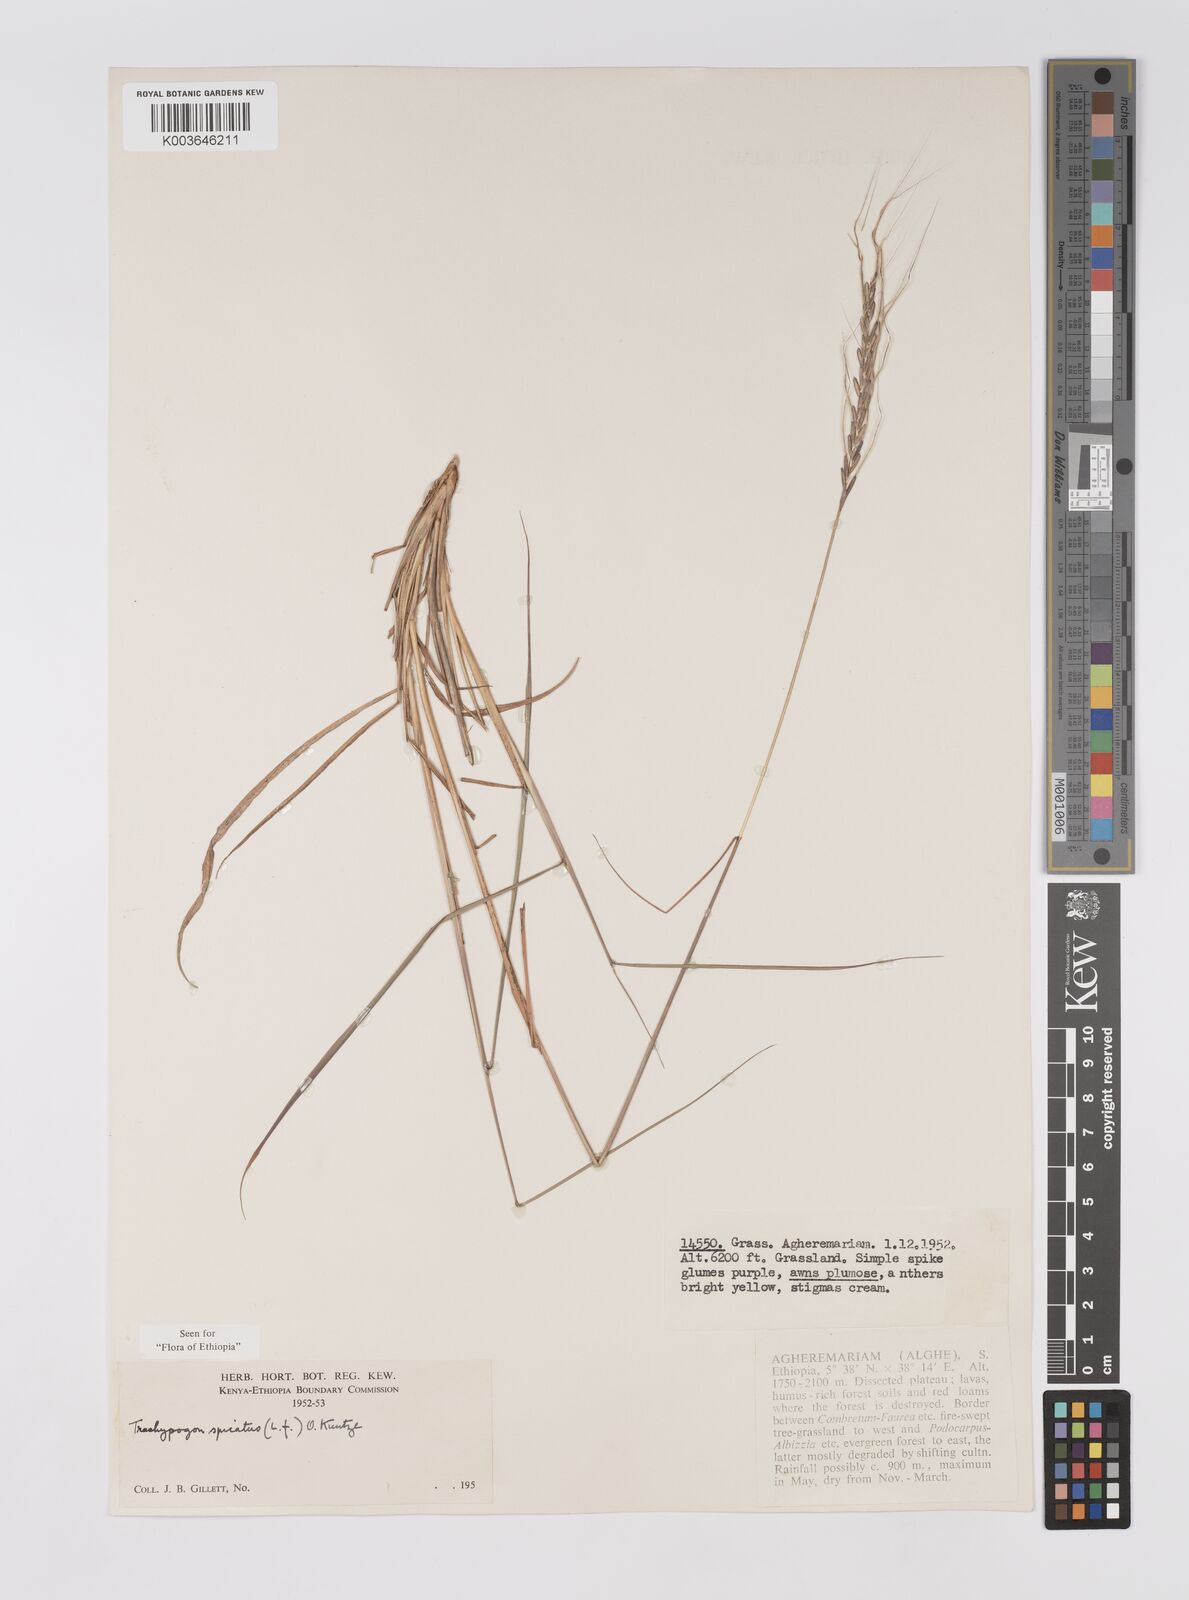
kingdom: Plantae
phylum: Tracheophyta
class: Liliopsida
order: Poales
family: Poaceae
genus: Trachypogon
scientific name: Trachypogon spicatus
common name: Crinkle-awn
